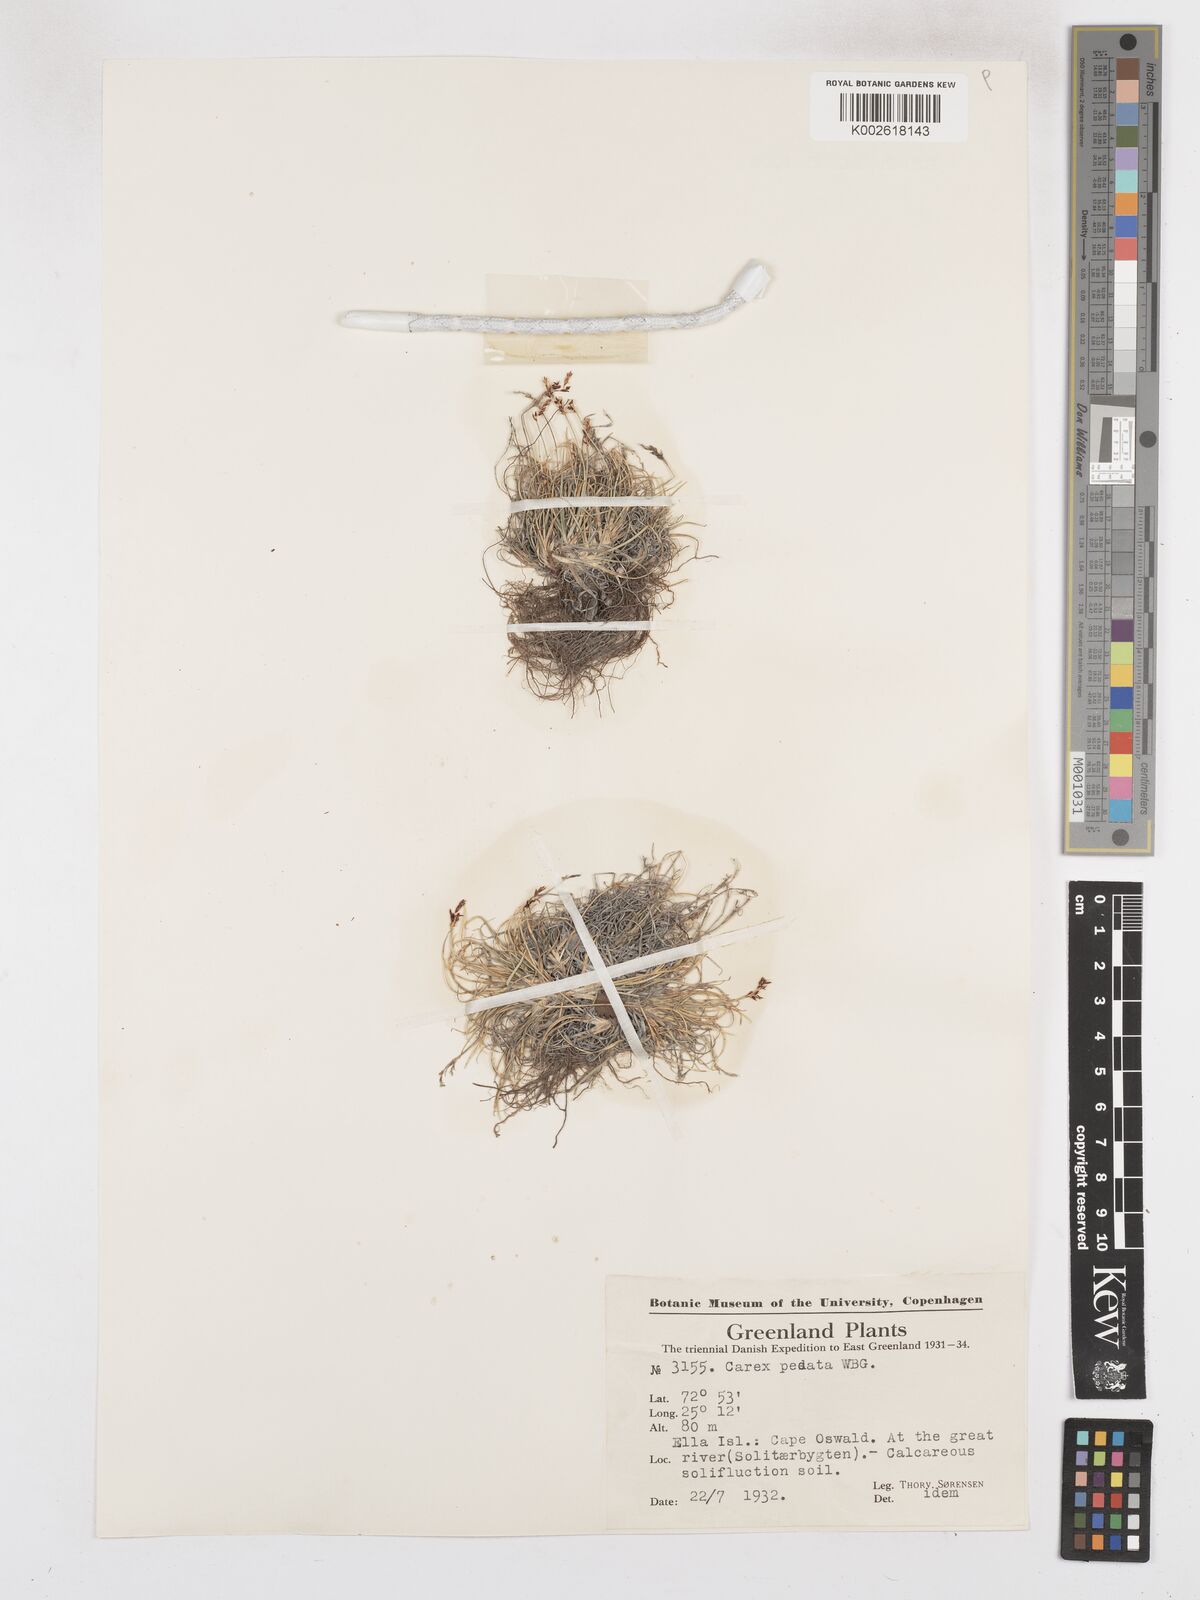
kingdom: Plantae
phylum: Tracheophyta
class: Liliopsida
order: Poales
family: Cyperaceae
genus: Carex
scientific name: Carex glacialis
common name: Newfoundland sedge
